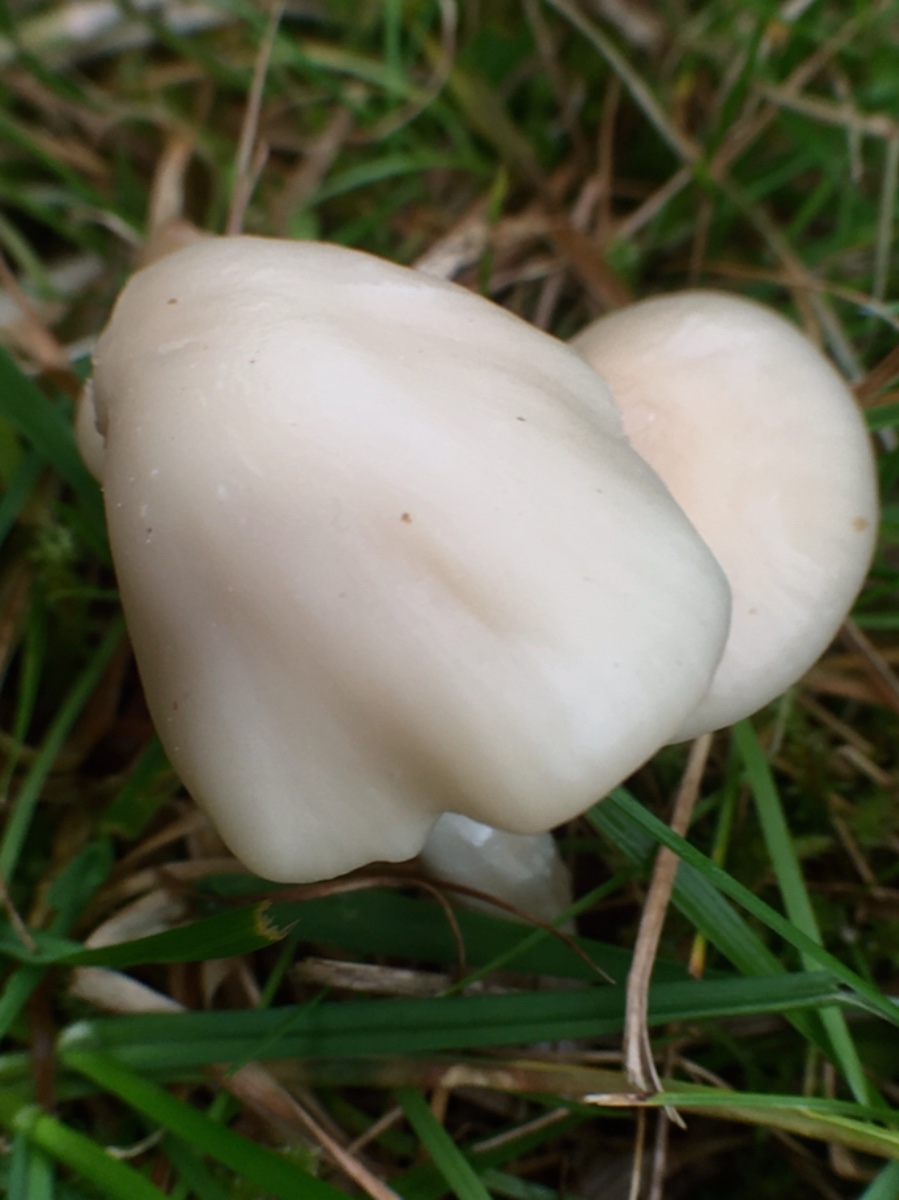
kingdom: Fungi
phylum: Basidiomycota
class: Agaricomycetes
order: Agaricales
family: Hygrophoraceae
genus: Cuphophyllus
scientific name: Cuphophyllus virgineus
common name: isabella-vokshat
